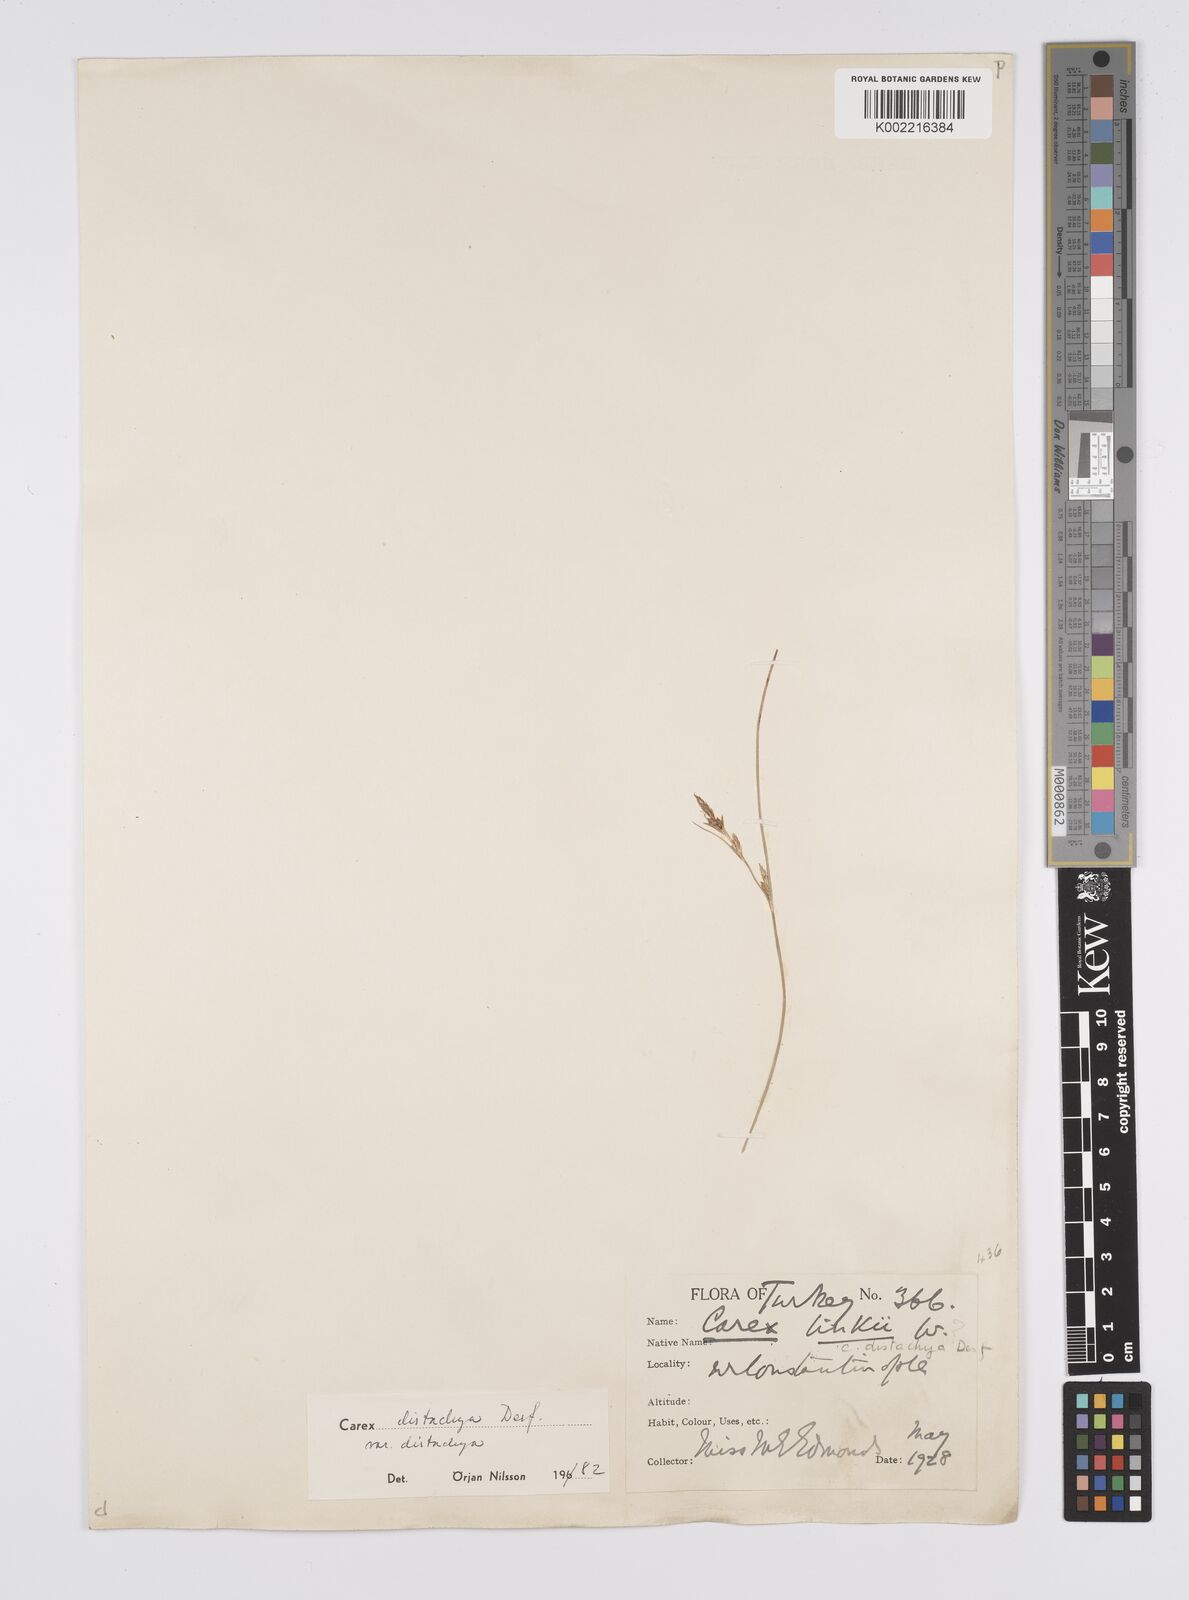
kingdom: Plantae
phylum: Tracheophyta
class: Liliopsida
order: Poales
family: Cyperaceae
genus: Carex
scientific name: Carex distachya
